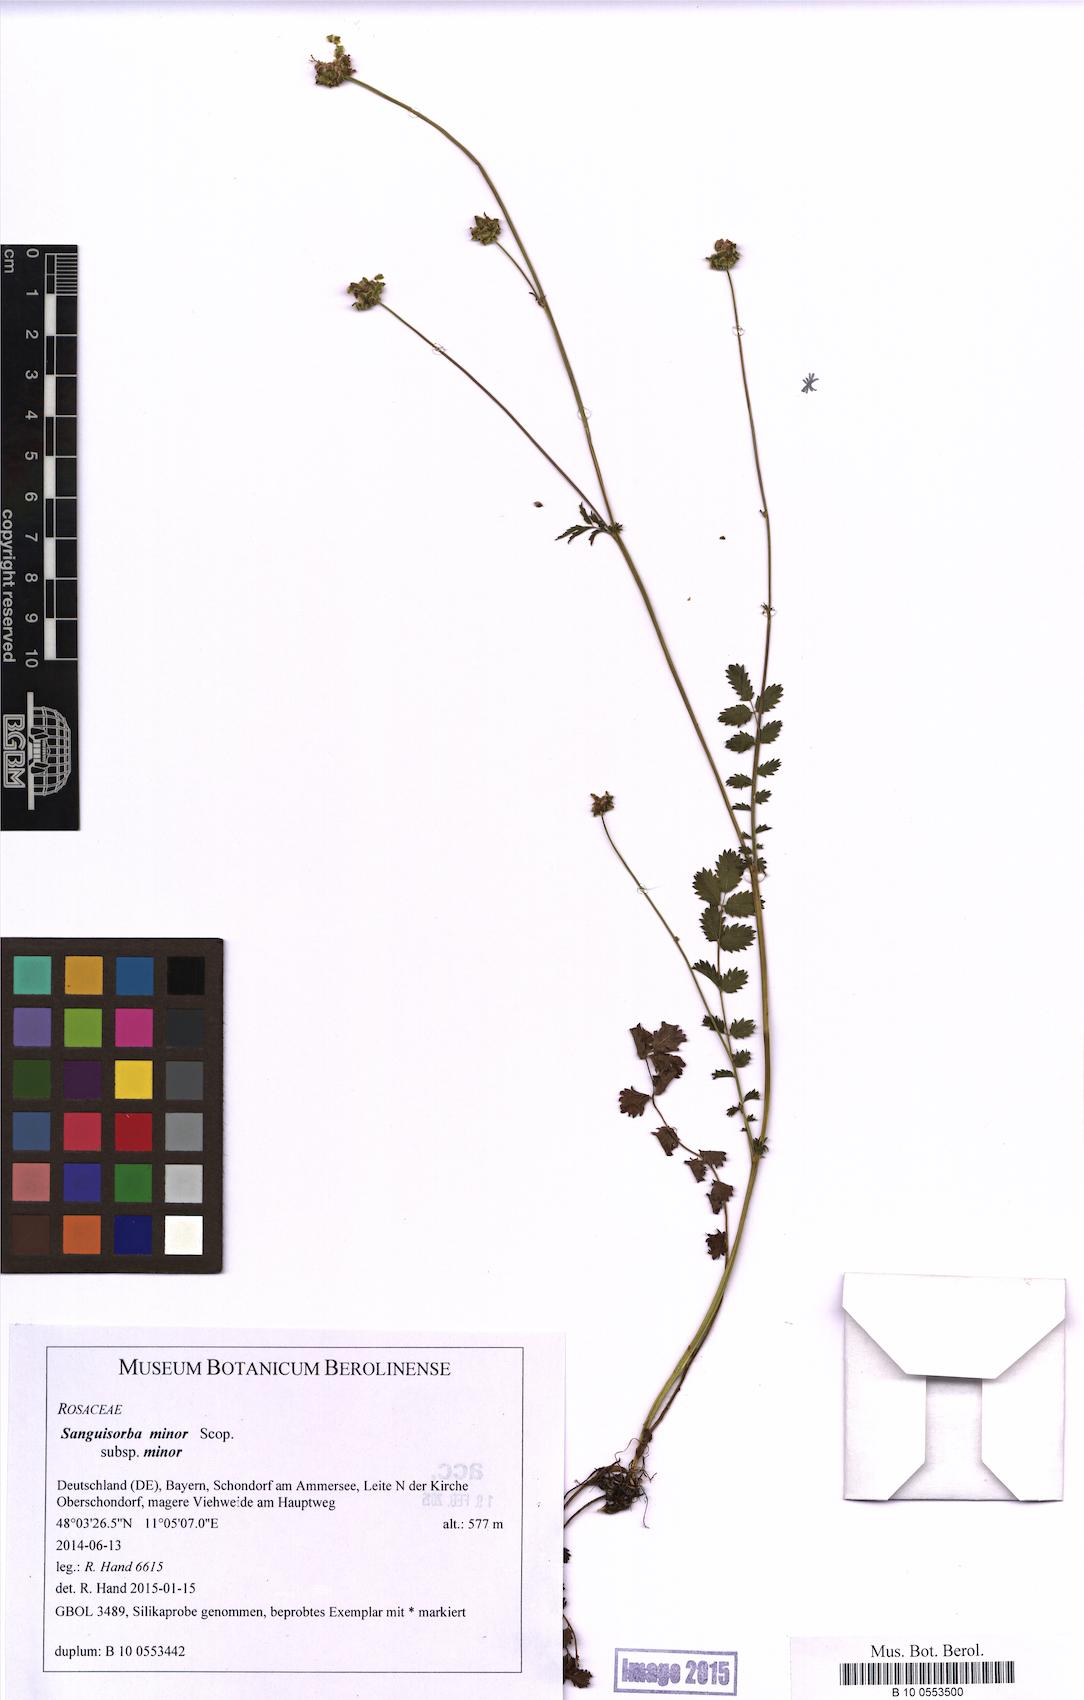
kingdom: Plantae
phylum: Tracheophyta
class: Magnoliopsida
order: Rosales
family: Rosaceae
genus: Poterium
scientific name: Poterium sanguisorba
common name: Salad burnet
